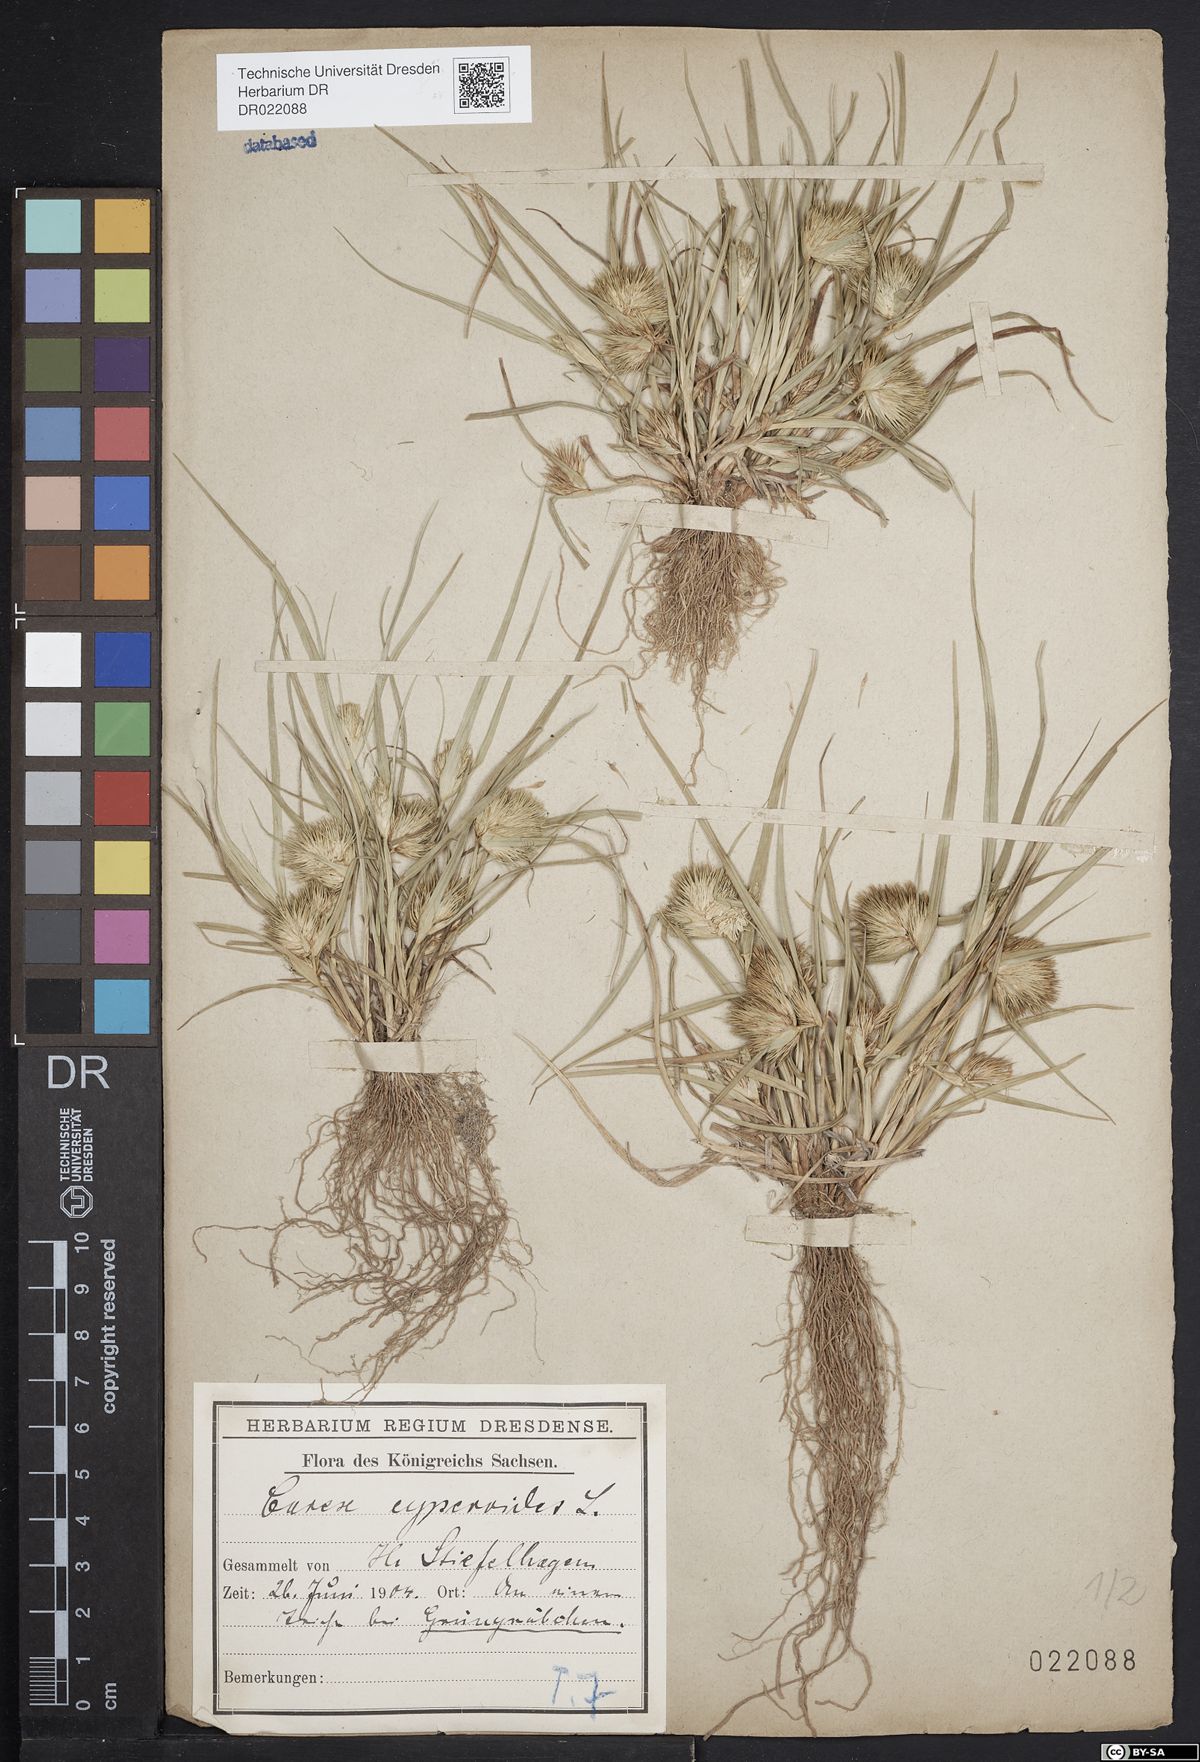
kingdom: Plantae
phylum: Tracheophyta
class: Liliopsida
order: Poales
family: Cyperaceae
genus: Carex
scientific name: Carex bohemica
